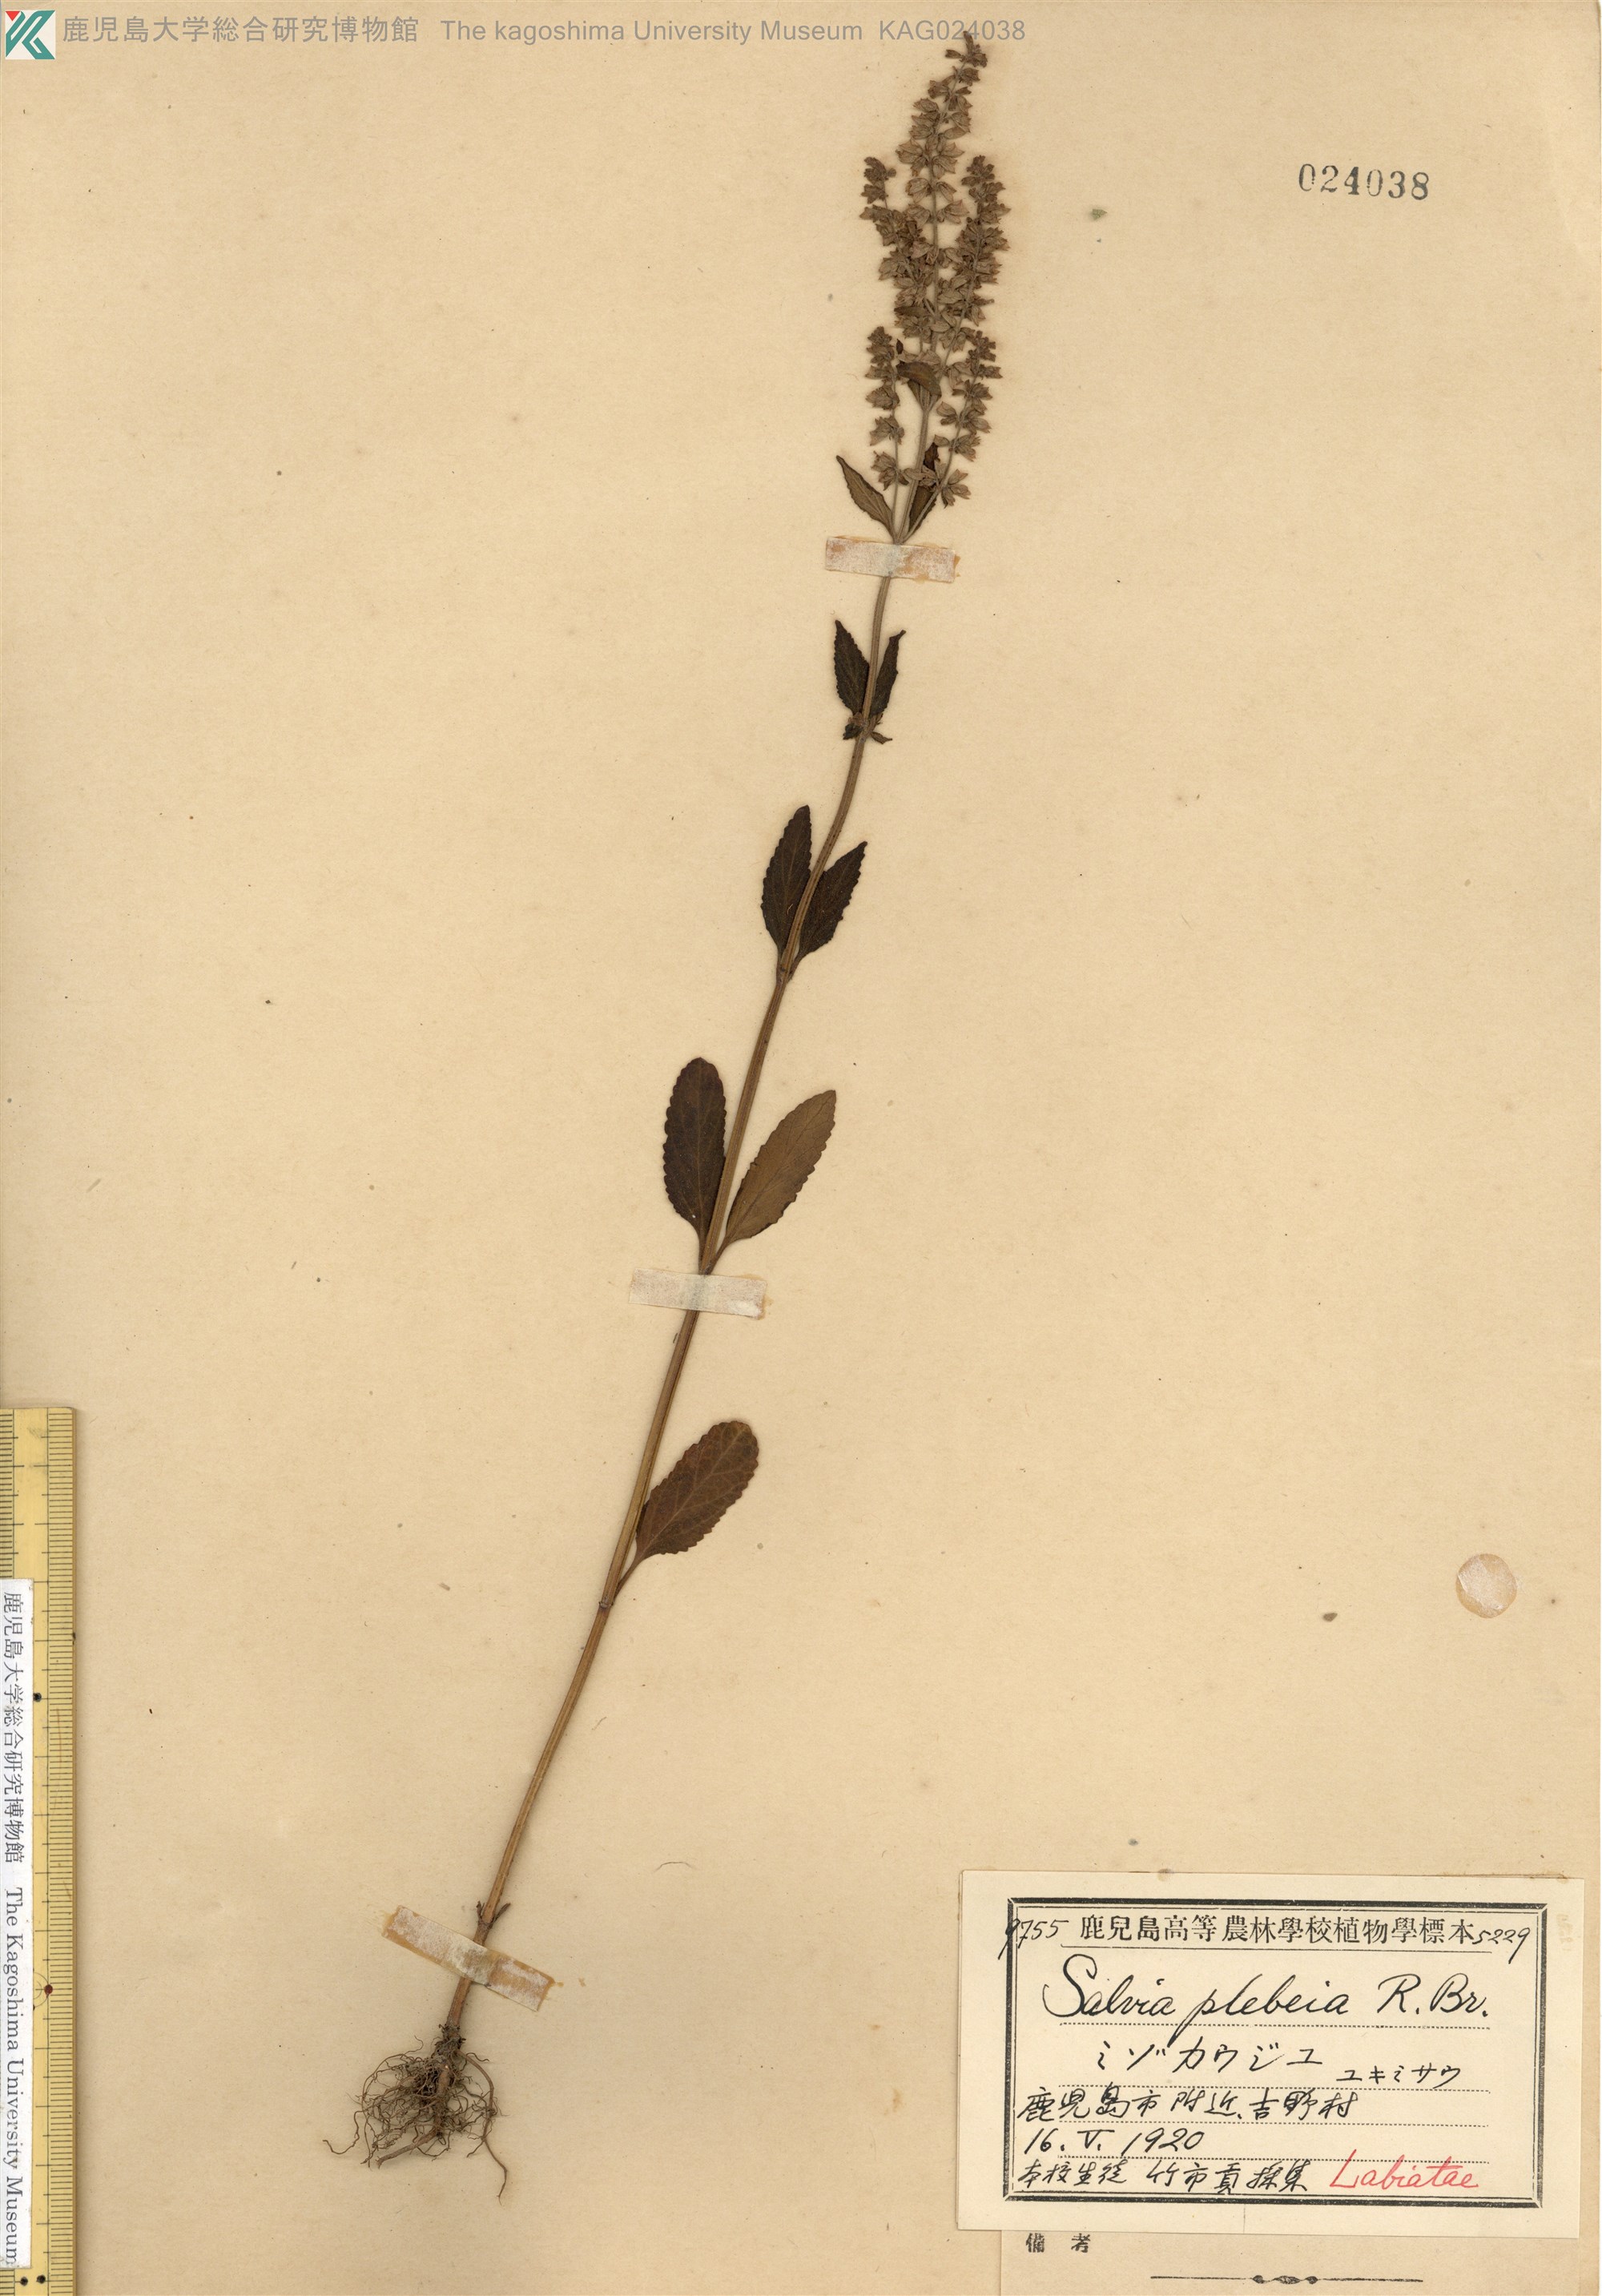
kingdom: Plantae
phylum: Tracheophyta
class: Magnoliopsida
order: Lamiales
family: Lamiaceae
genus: Salvia
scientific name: Salvia plebeia
